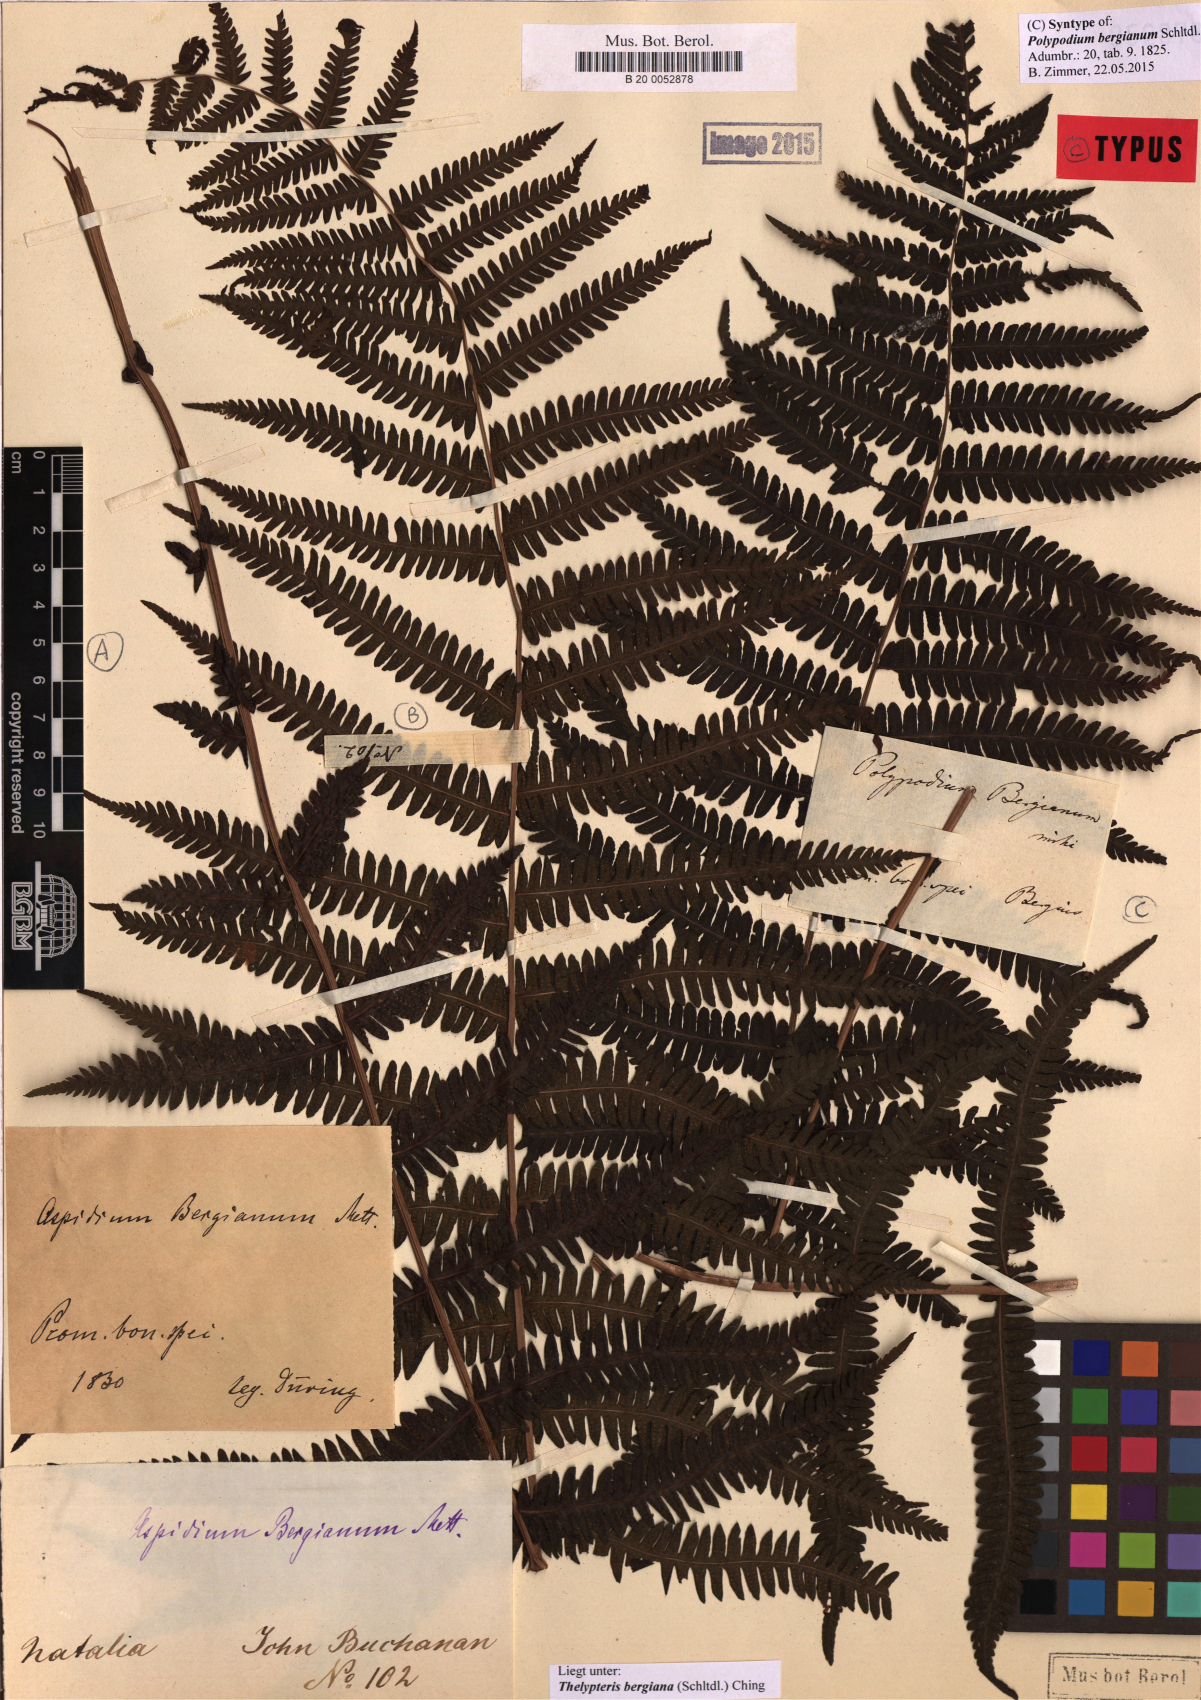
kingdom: Plantae
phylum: Tracheophyta
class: Polypodiopsida
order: Polypodiales
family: Thelypteridaceae
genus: Amauropelta
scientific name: Amauropelta bergiana
